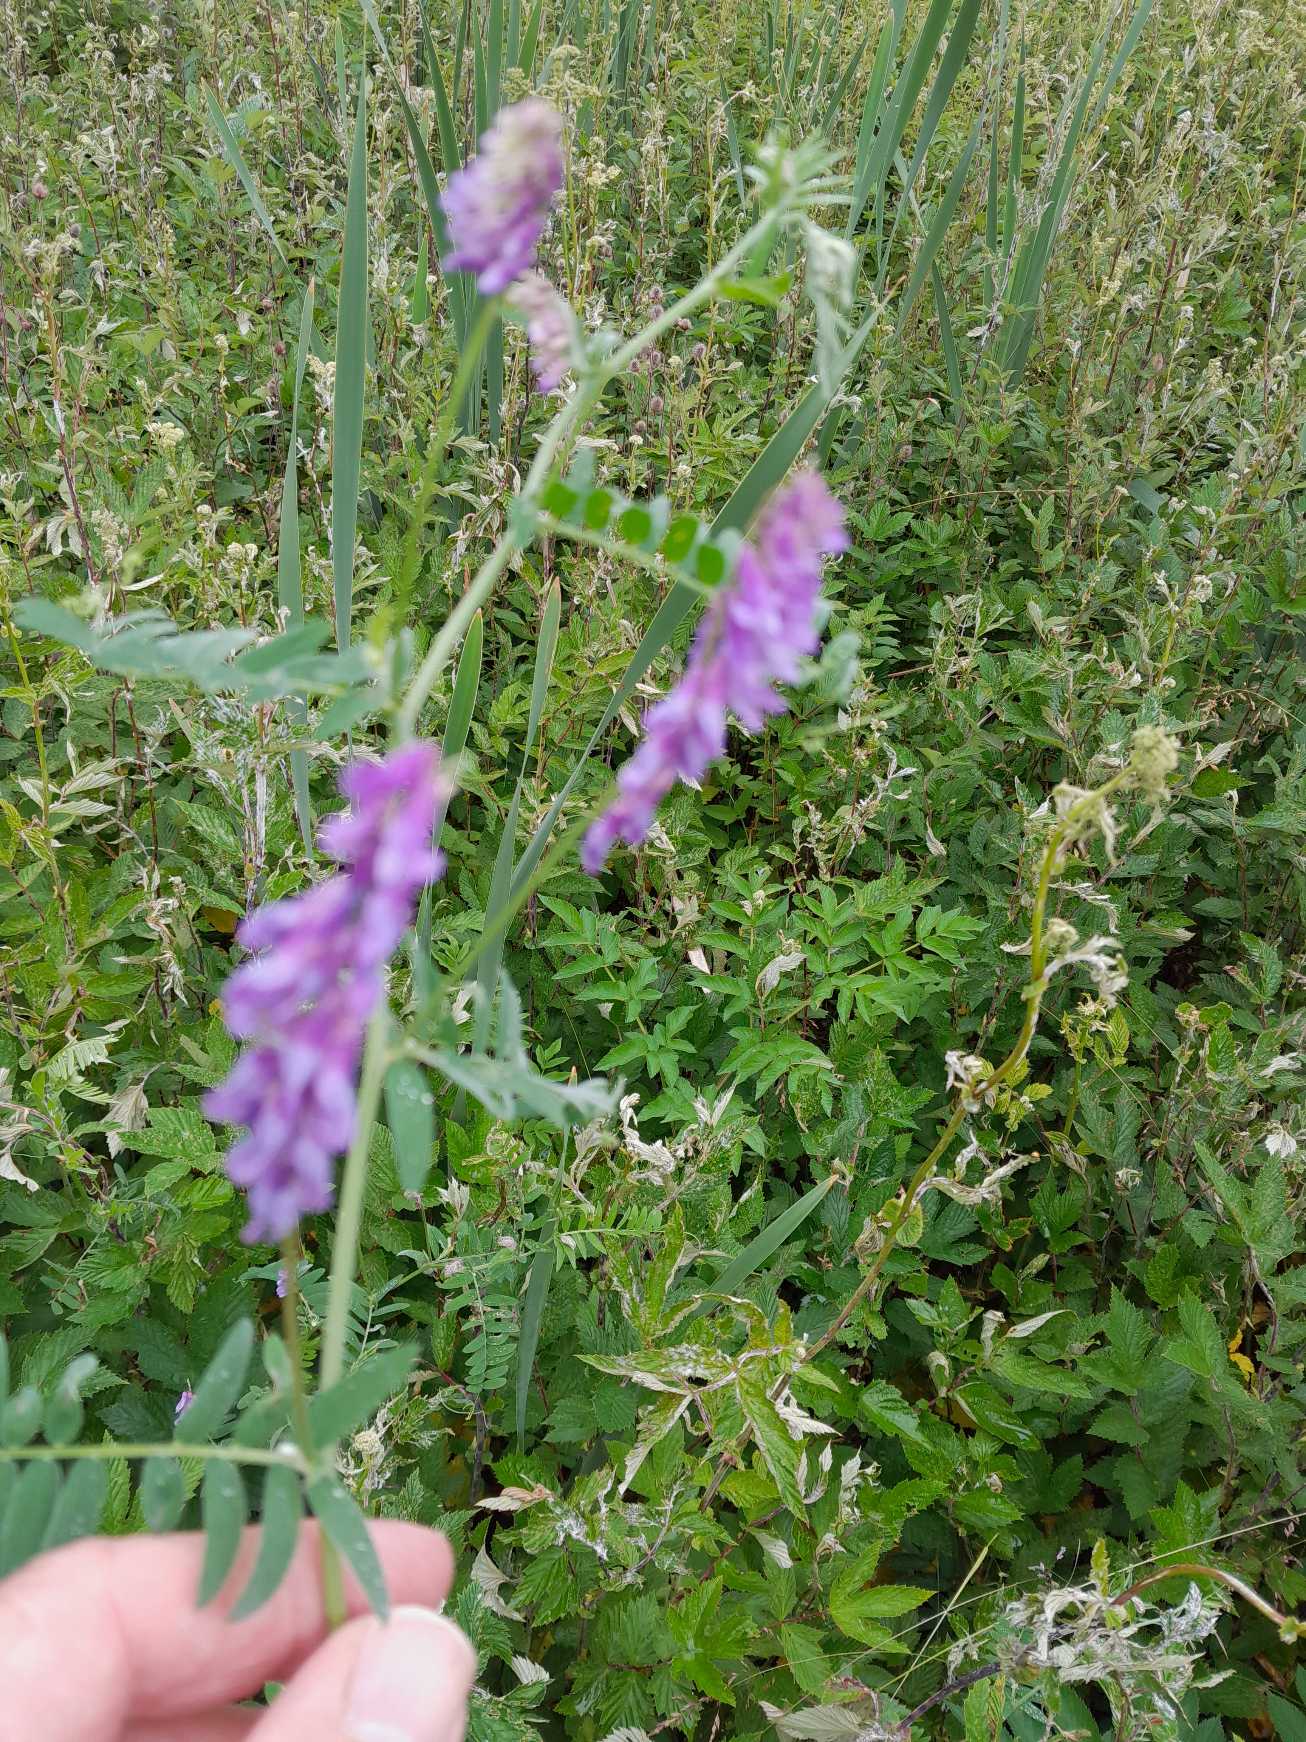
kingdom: Plantae
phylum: Tracheophyta
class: Magnoliopsida
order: Fabales
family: Fabaceae
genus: Vicia
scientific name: Vicia cracca
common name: Muse-vikke
